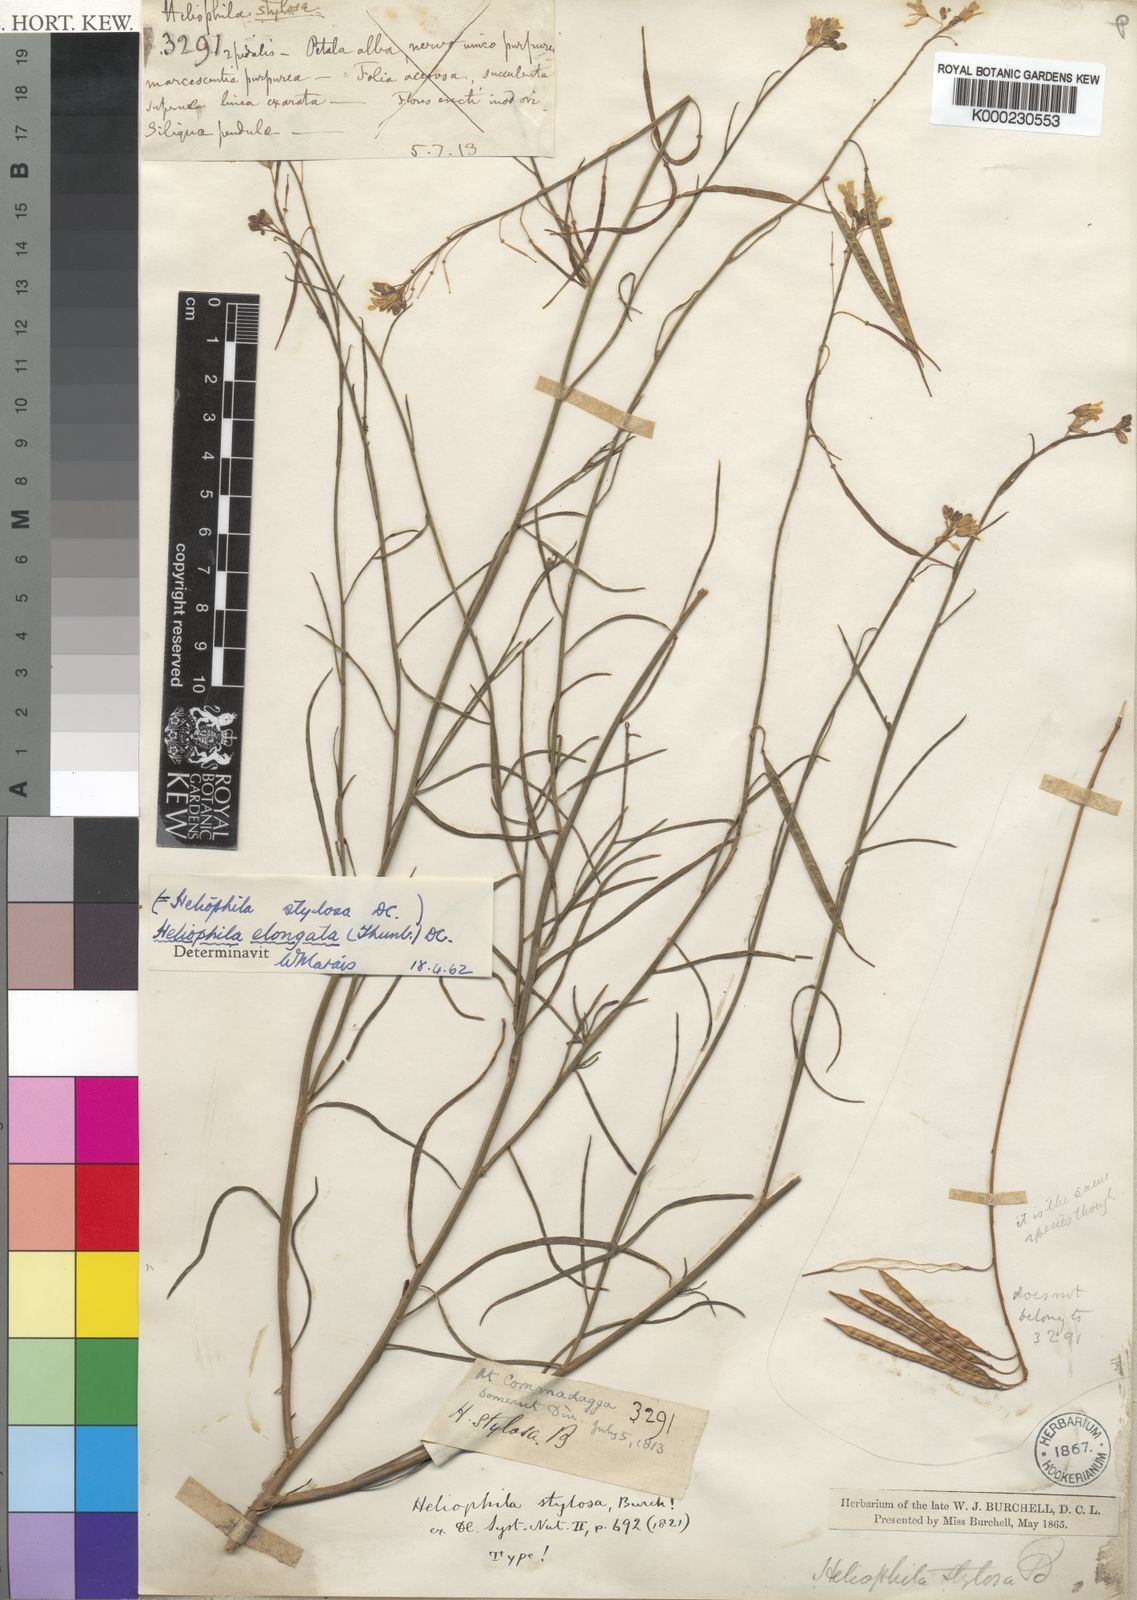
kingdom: Plantae
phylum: Tracheophyta
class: Magnoliopsida
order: Brassicales
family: Brassicaceae
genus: Heliophila
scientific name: Heliophila elongata
